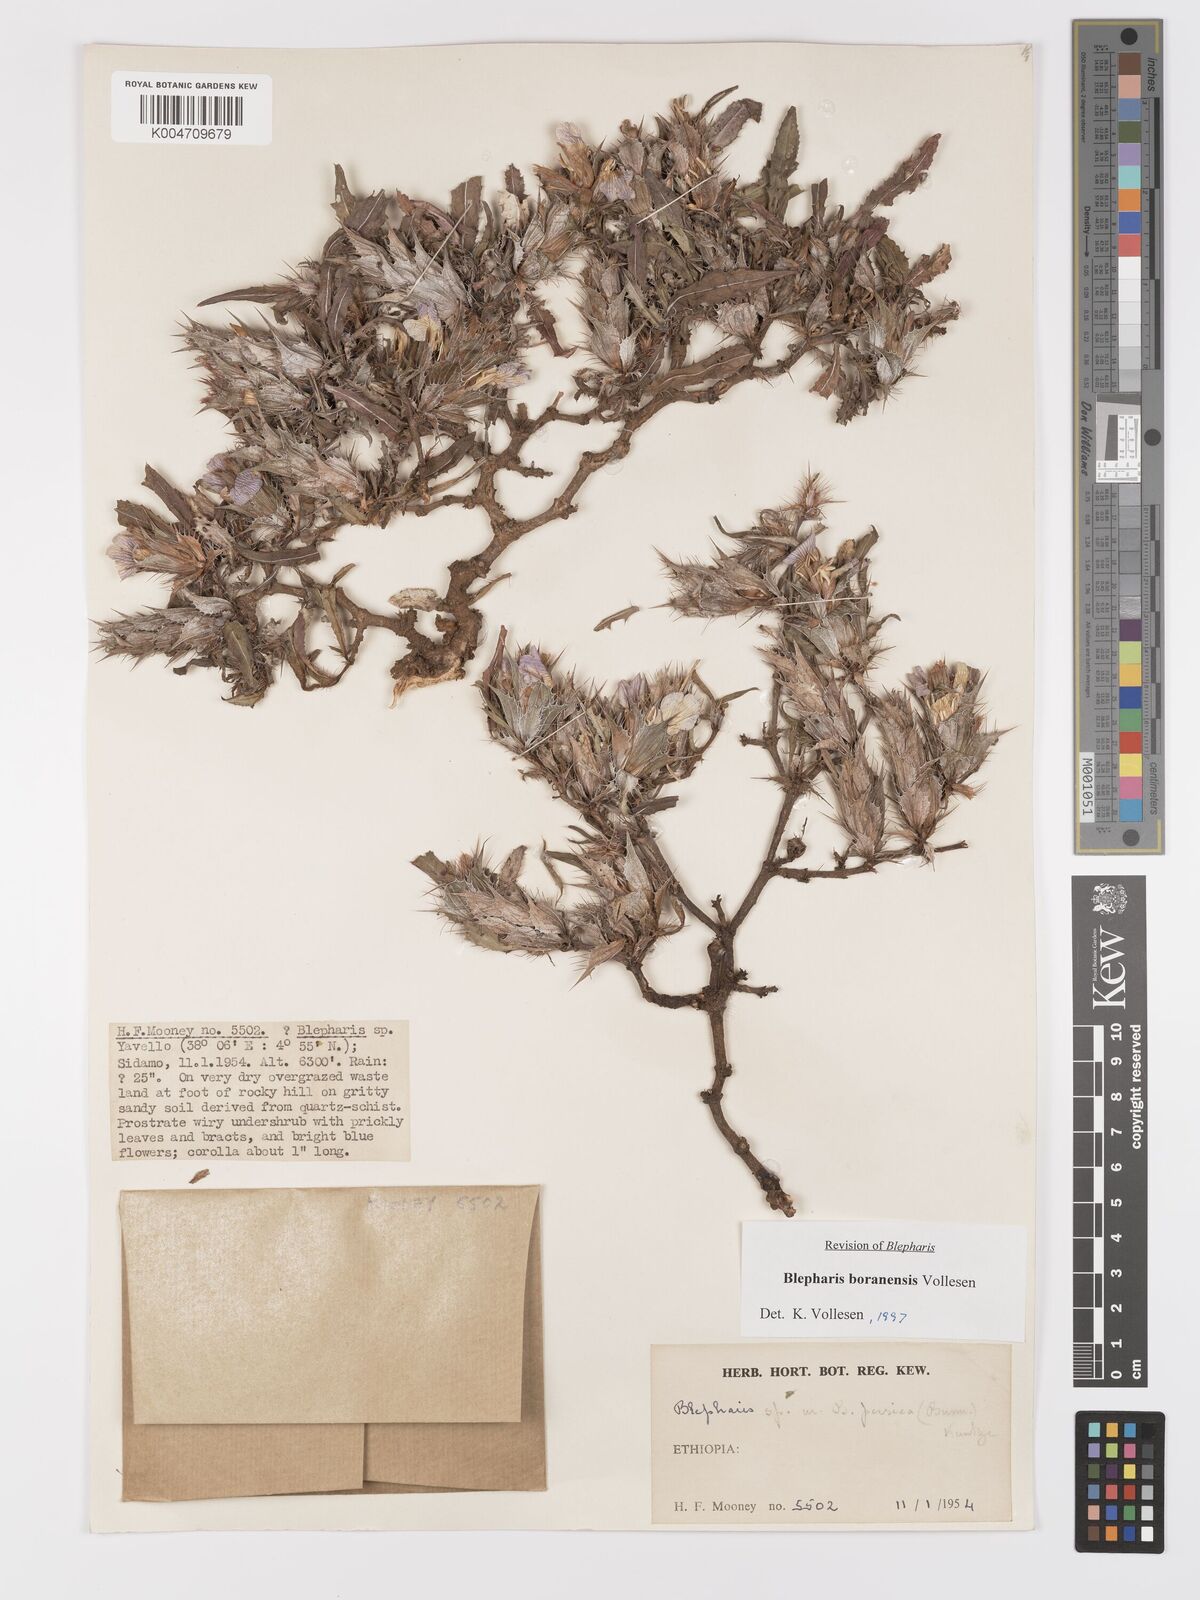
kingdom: Plantae
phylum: Tracheophyta
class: Magnoliopsida
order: Lamiales
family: Acanthaceae
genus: Blepharis
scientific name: Blepharis boranensis
